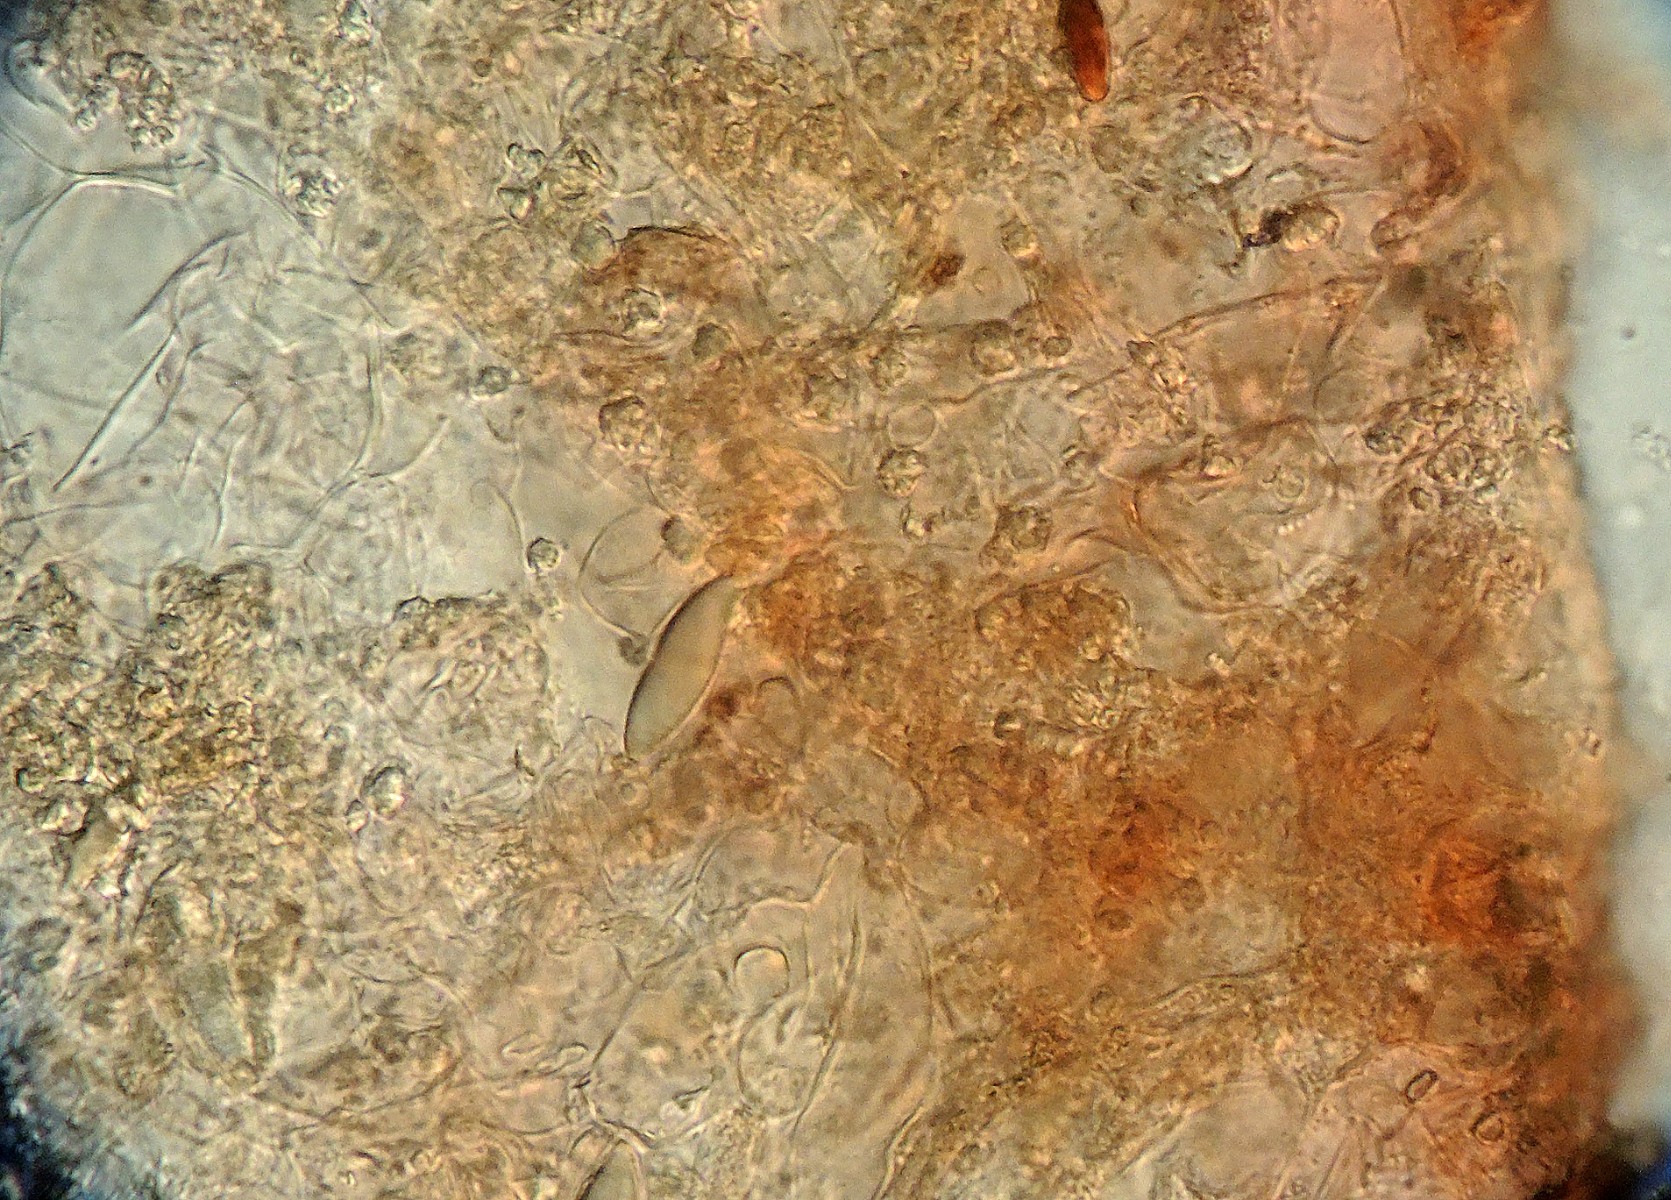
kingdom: Fungi
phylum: Basidiomycota
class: Agaricomycetes
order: Hysterangiales
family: Hysterangiaceae
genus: Hysterangium
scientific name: Hysterangium stoloniferum
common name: storsporet rodtrøffel
